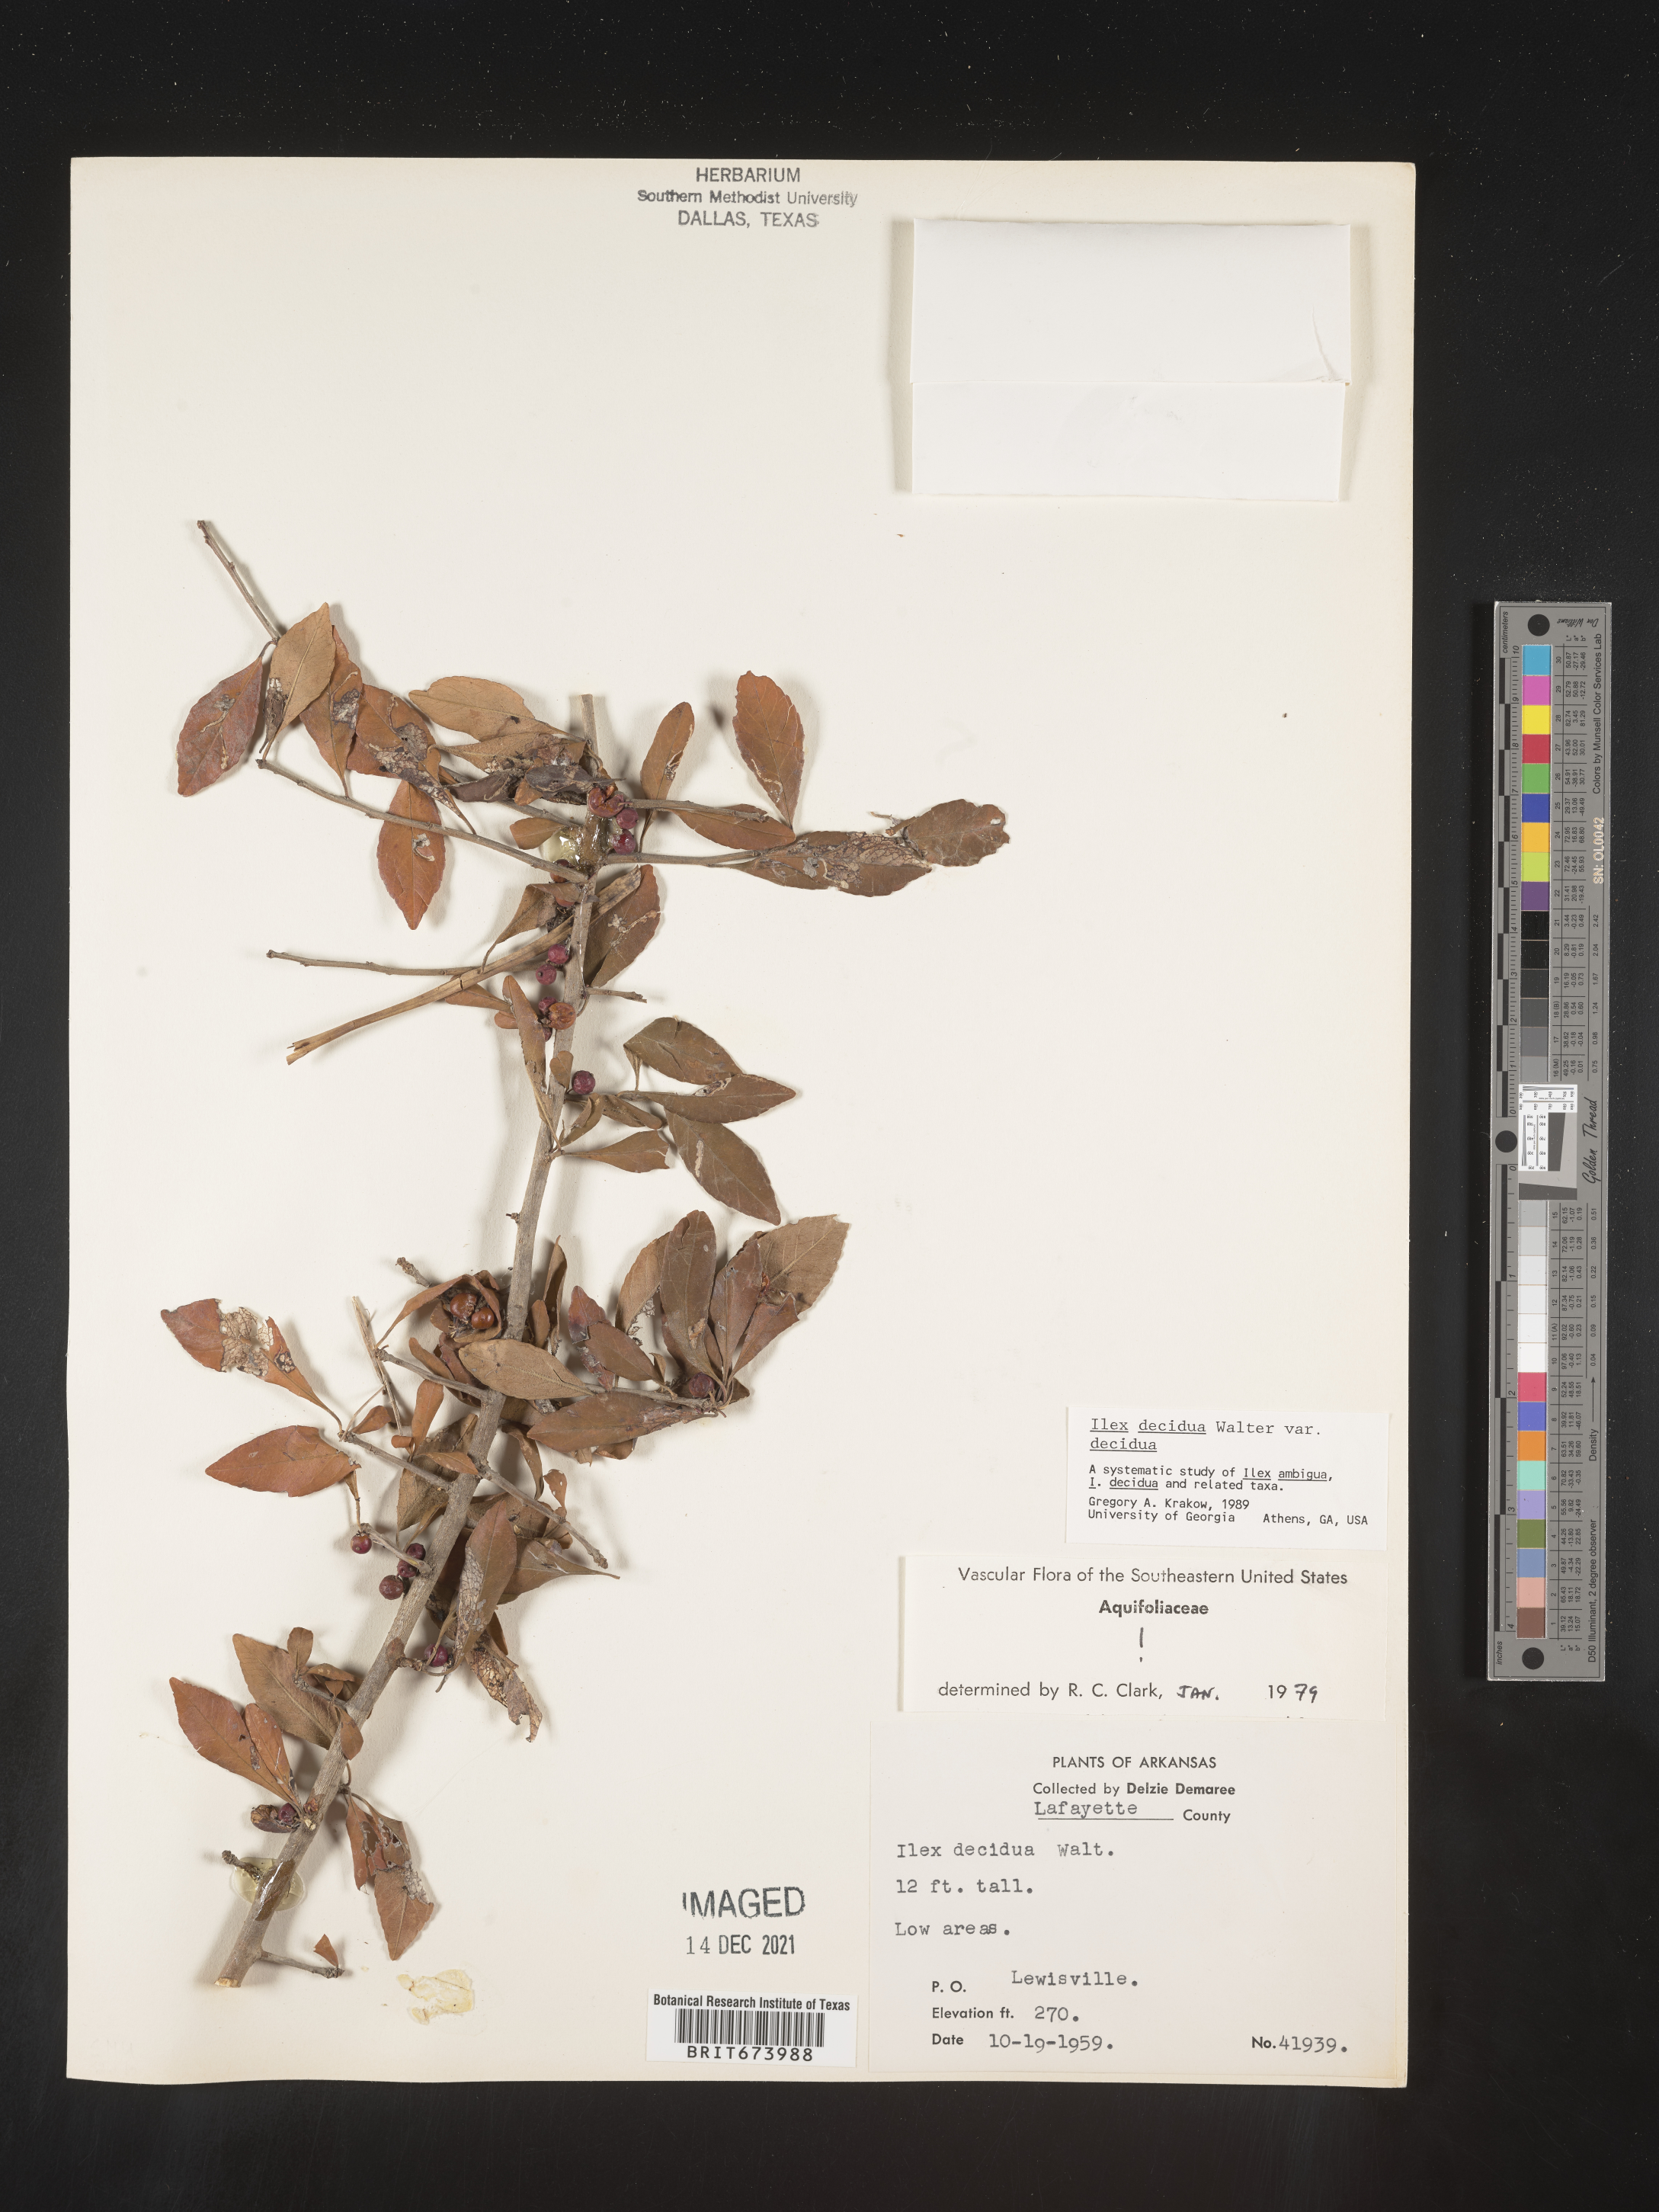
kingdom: Plantae
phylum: Tracheophyta
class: Magnoliopsida
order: Aquifoliales
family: Aquifoliaceae
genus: Ilex
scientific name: Ilex decidua
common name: Possum-haw
